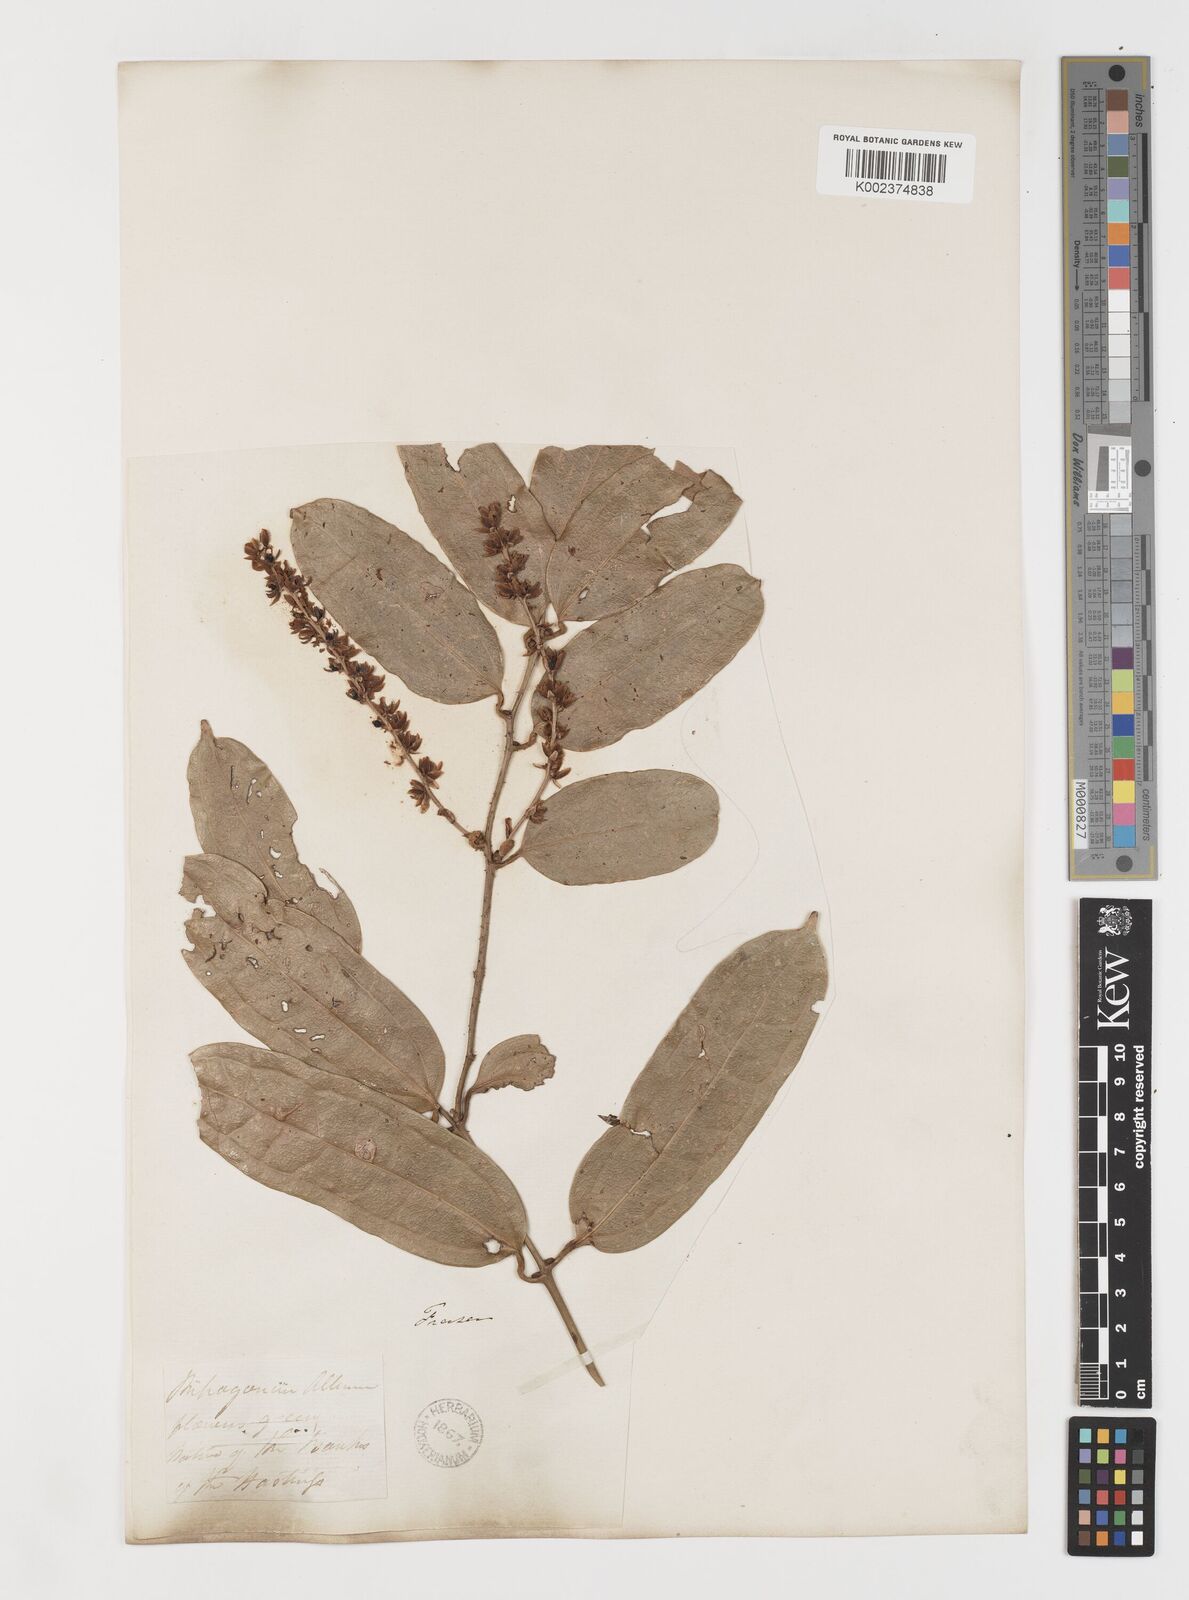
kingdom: Plantae
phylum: Tracheophyta
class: Liliopsida
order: Liliales
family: Ripogonaceae
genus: Ripogonum
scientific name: Ripogonum album
